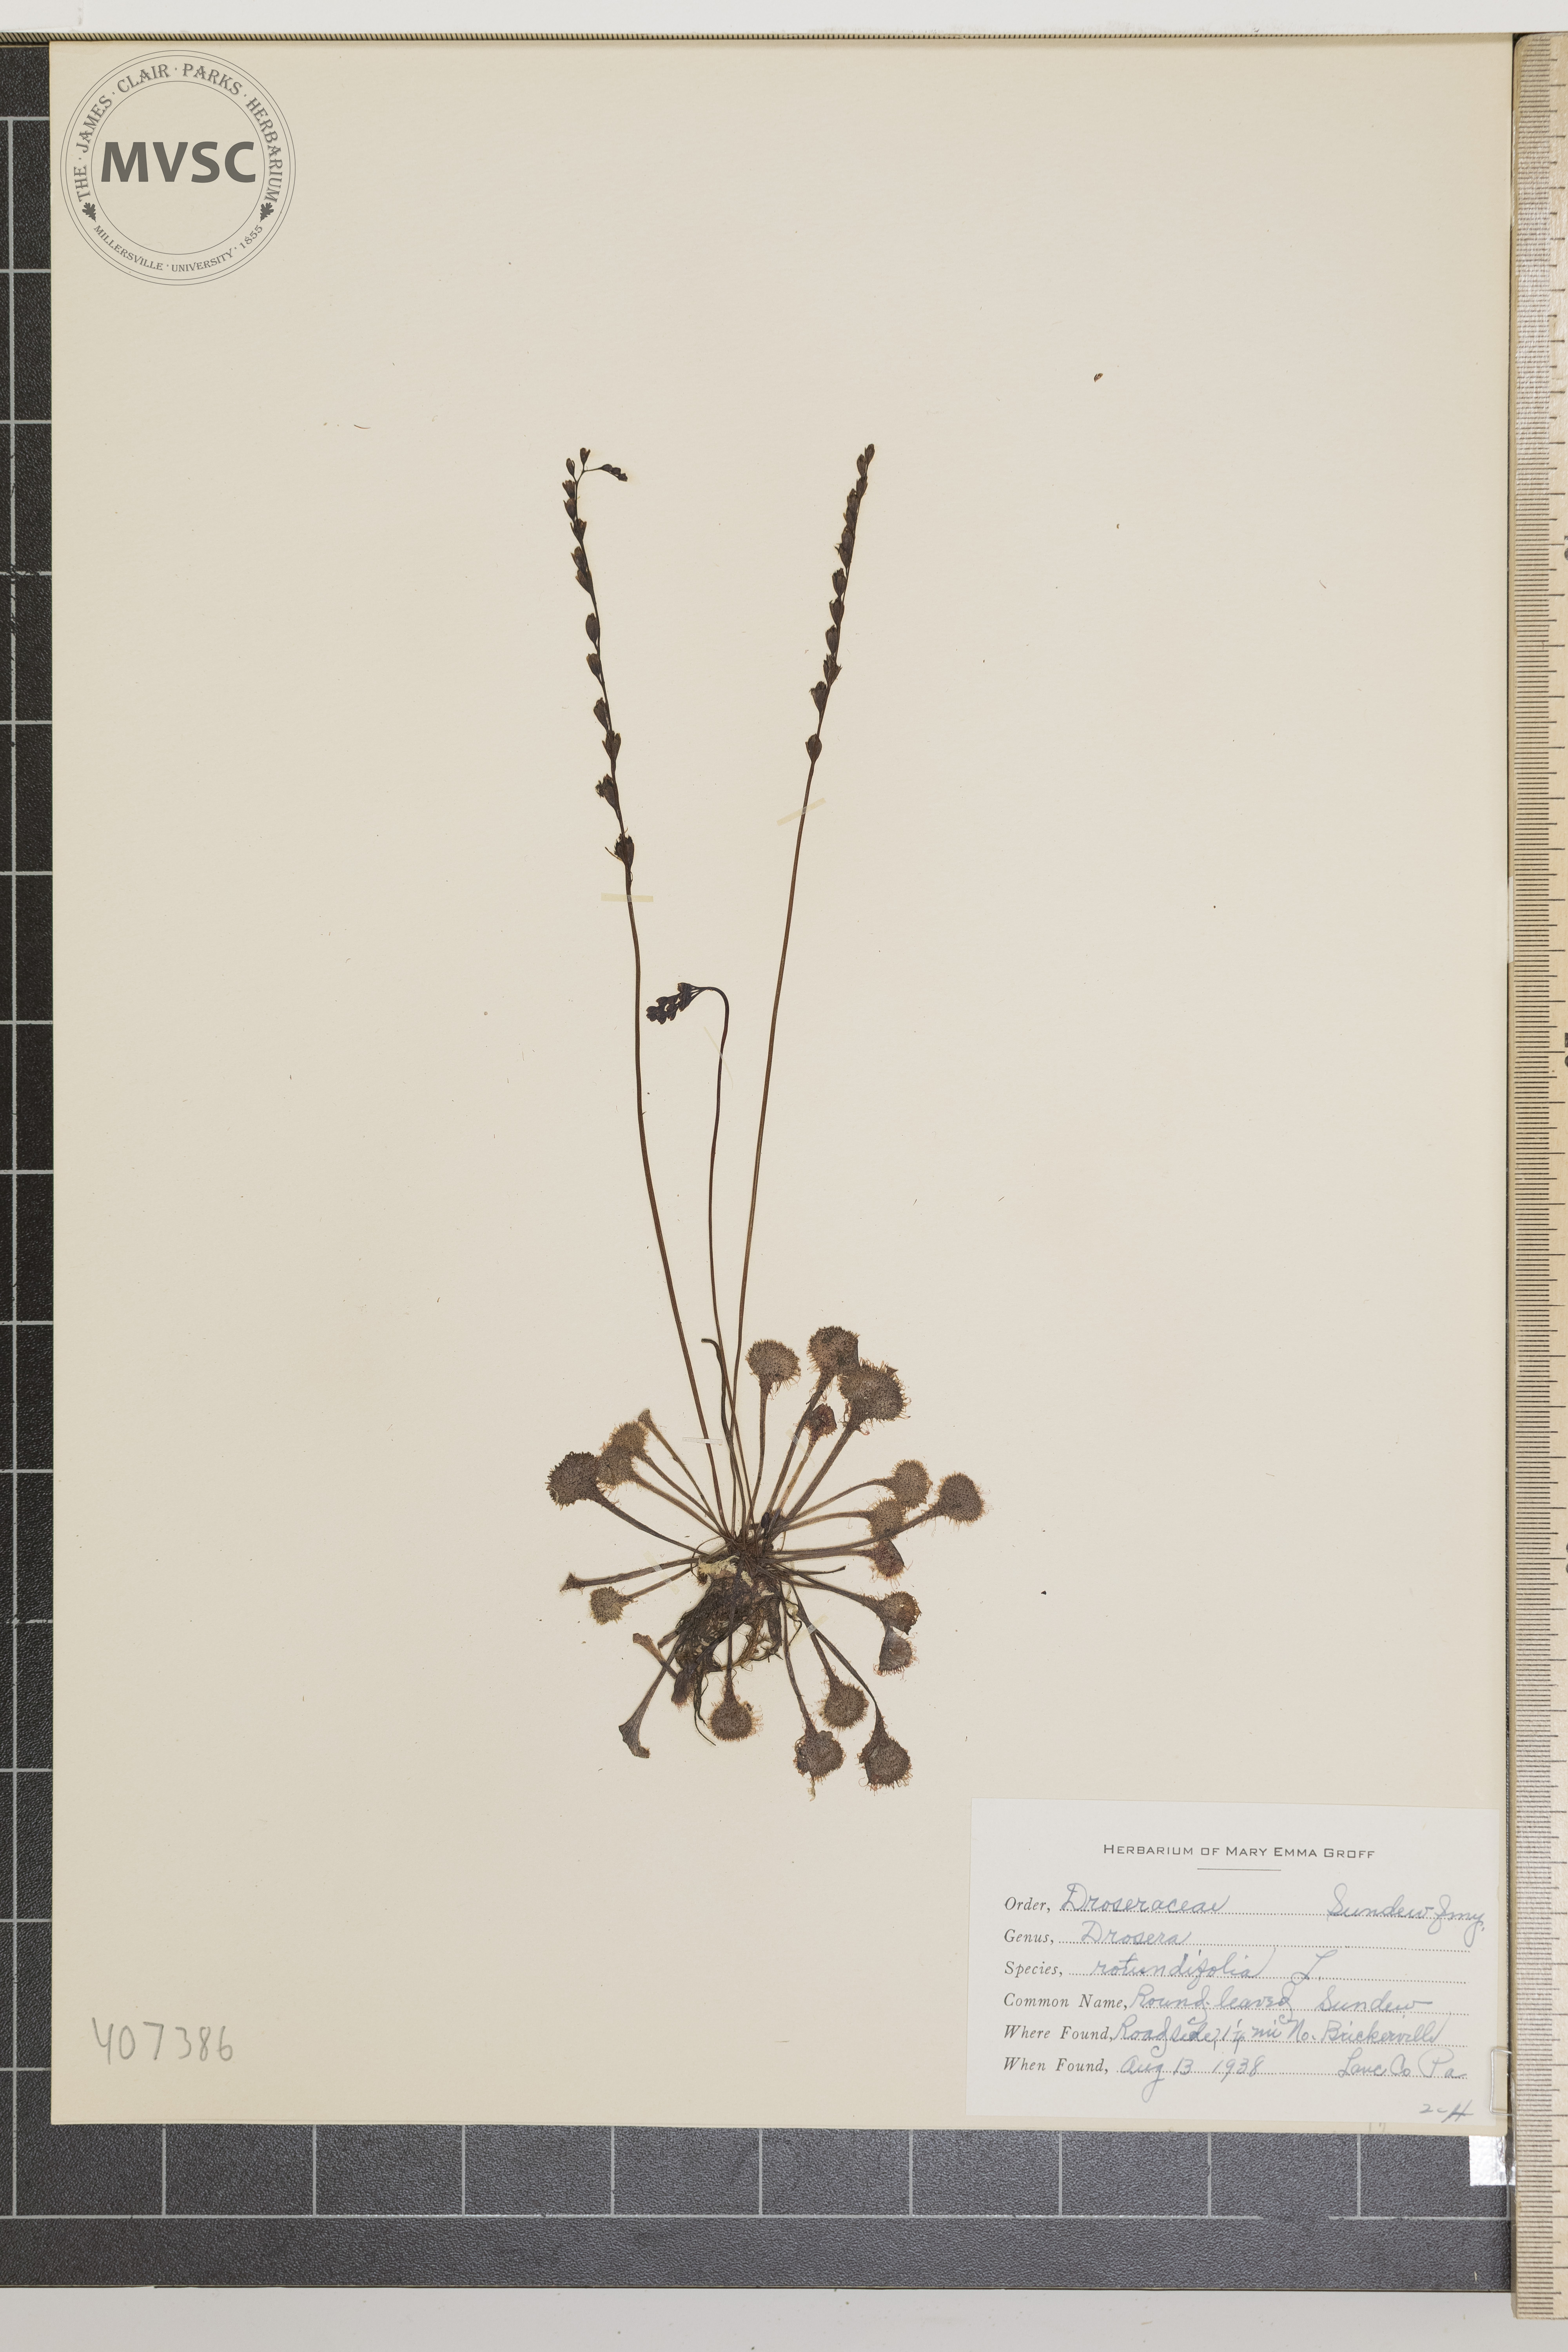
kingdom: Plantae
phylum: Tracheophyta
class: Magnoliopsida
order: Caryophyllales
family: Droseraceae
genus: Drosera
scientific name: Drosera rotundifolia
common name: Round-leaved Sundew
